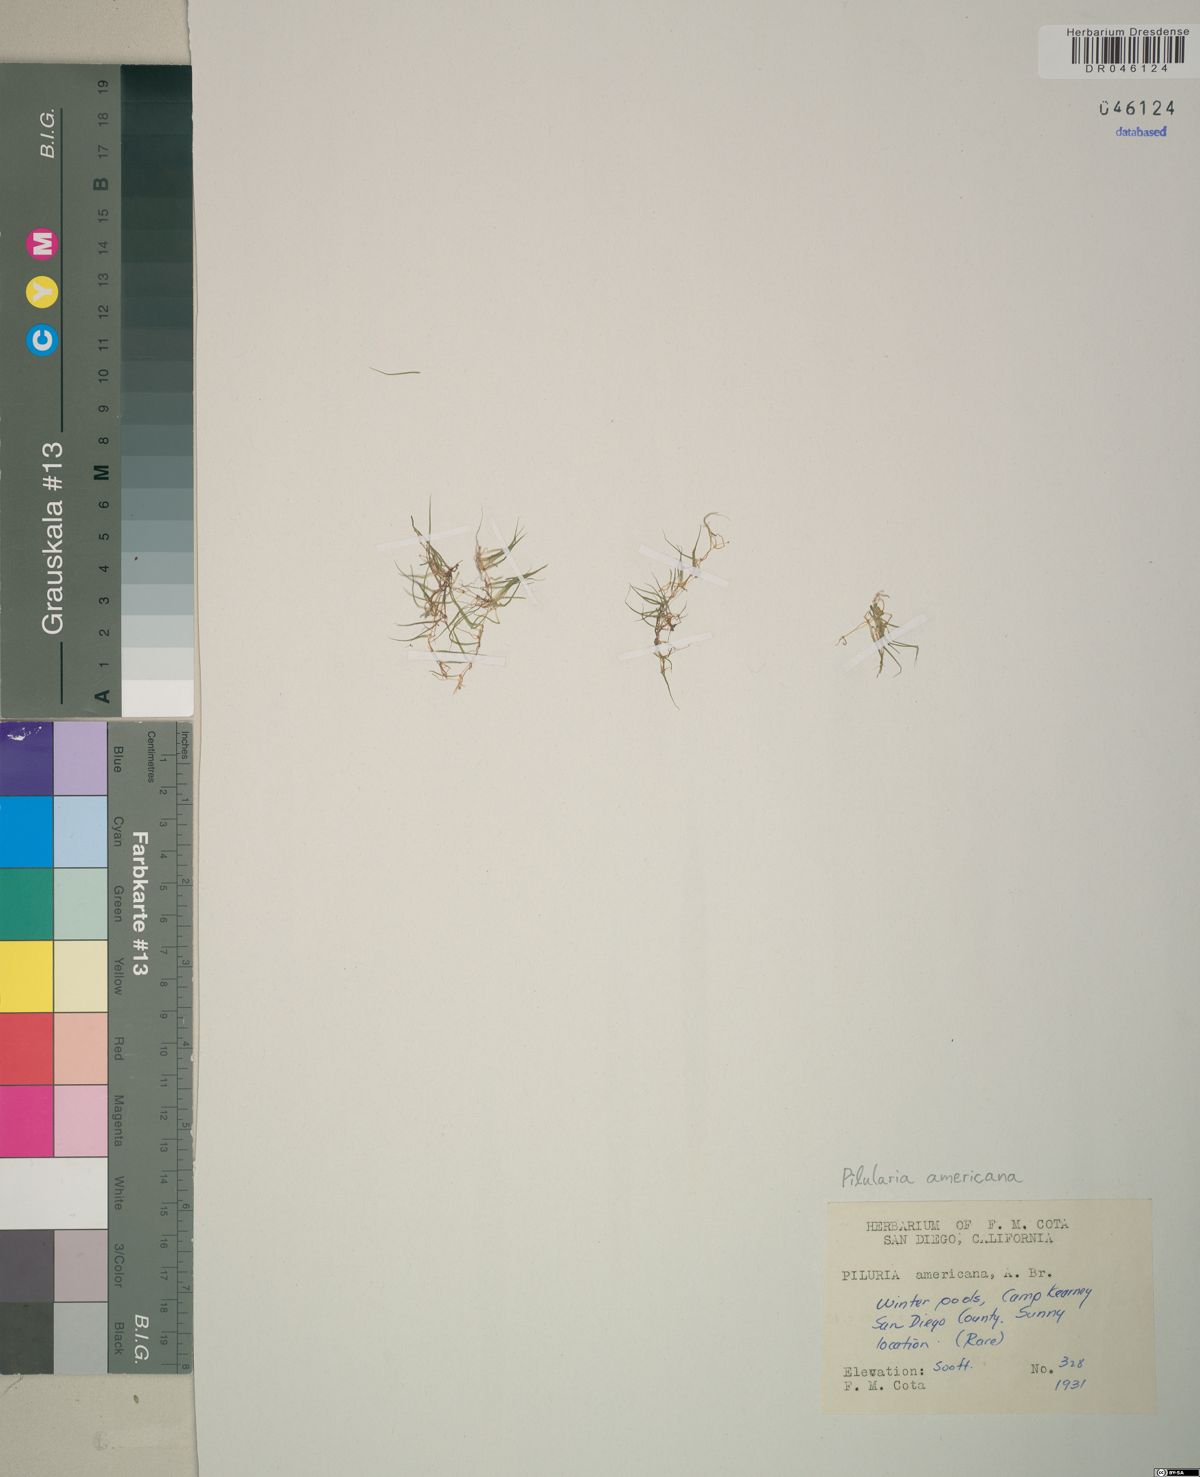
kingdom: Plantae
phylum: Tracheophyta
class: Polypodiopsida
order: Salviniales
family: Marsileaceae
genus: Pilularia
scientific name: Pilularia americana
